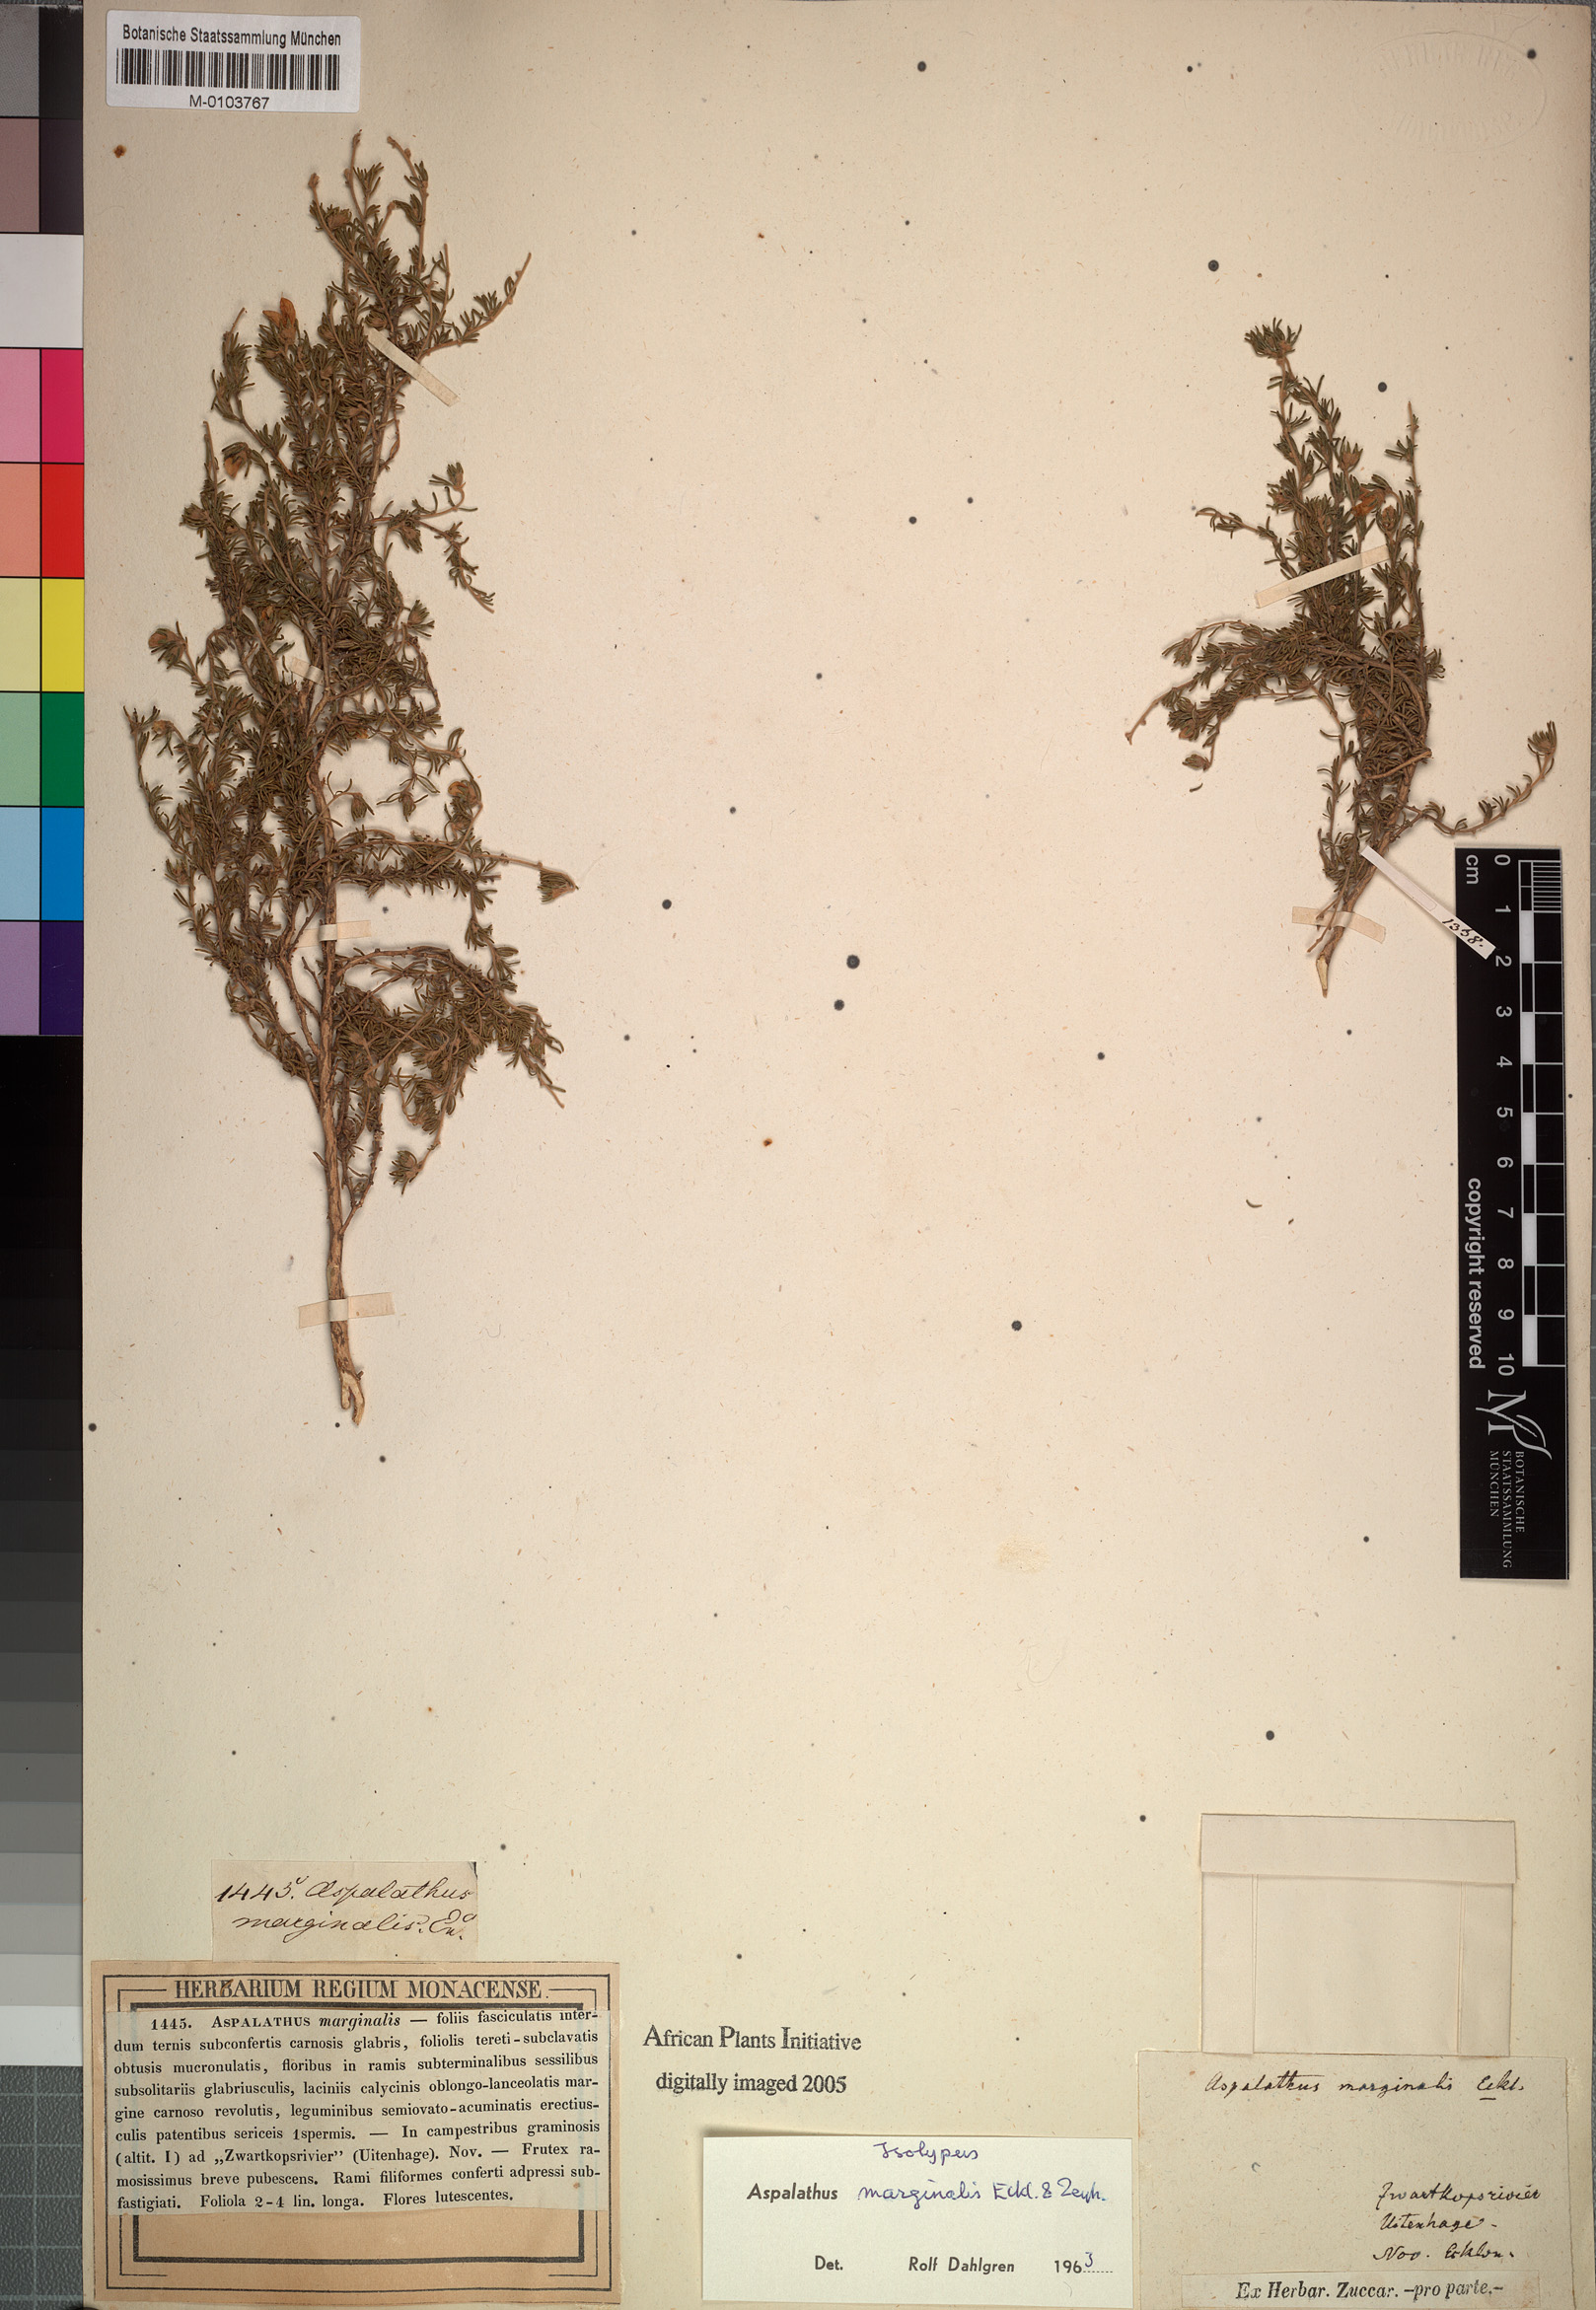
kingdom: Plantae
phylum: Tracheophyta
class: Magnoliopsida
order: Fabales
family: Fabaceae
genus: Aspalathus
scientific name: Aspalathus marginalis
